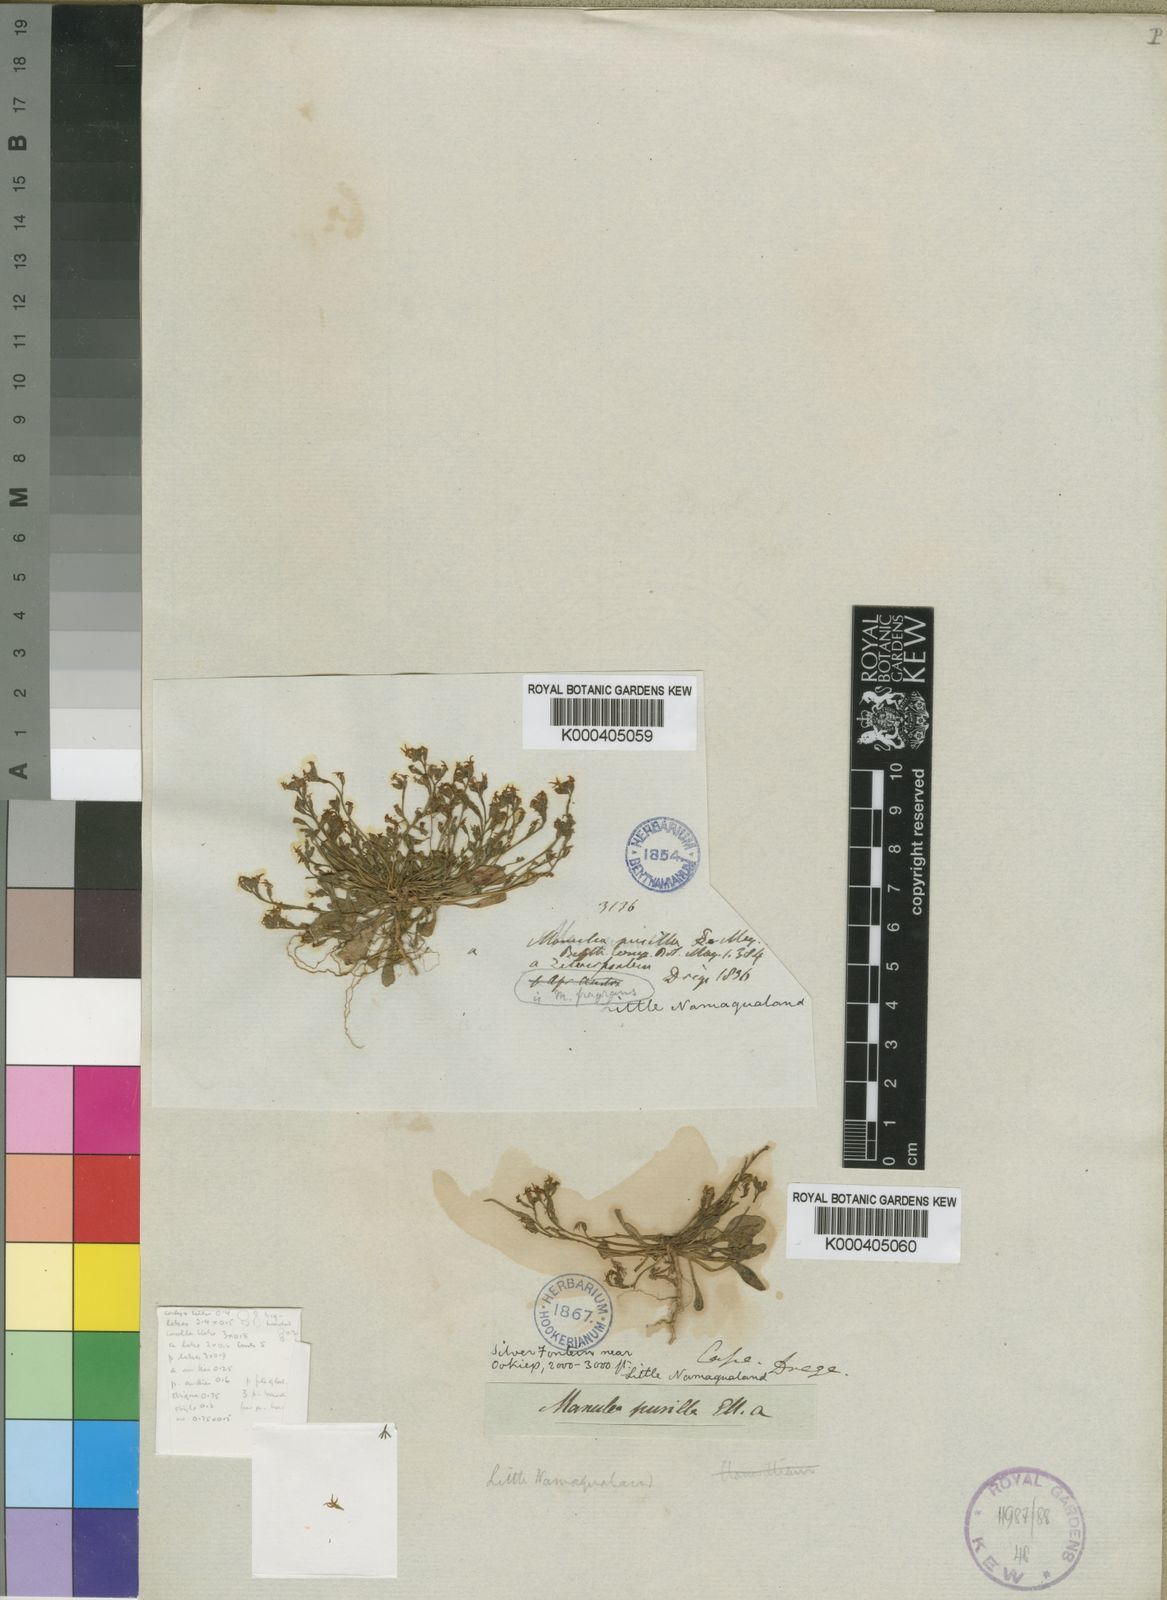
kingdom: Plantae
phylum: Tracheophyta
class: Magnoliopsida
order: Lamiales
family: Scrophulariaceae
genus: Manulea
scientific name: Manulea pusilla
